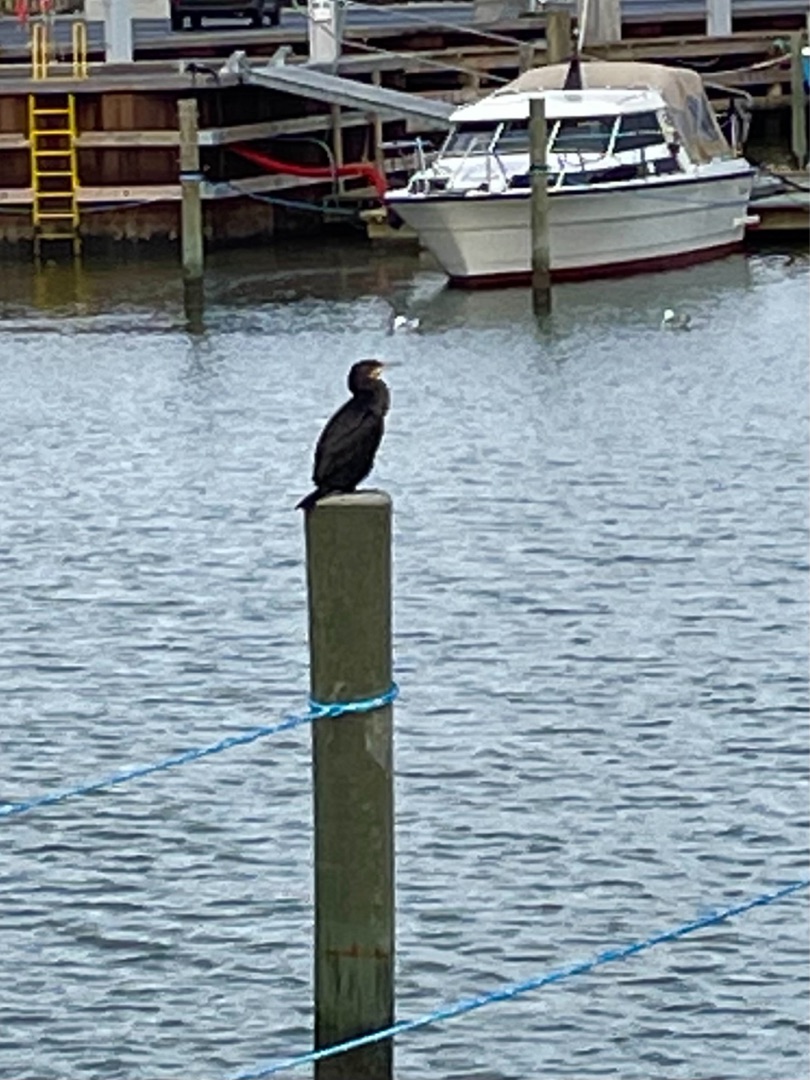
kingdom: Animalia
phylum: Chordata
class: Aves
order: Suliformes
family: Phalacrocoracidae
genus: Phalacrocorax
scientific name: Phalacrocorax carbo
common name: Skarv
